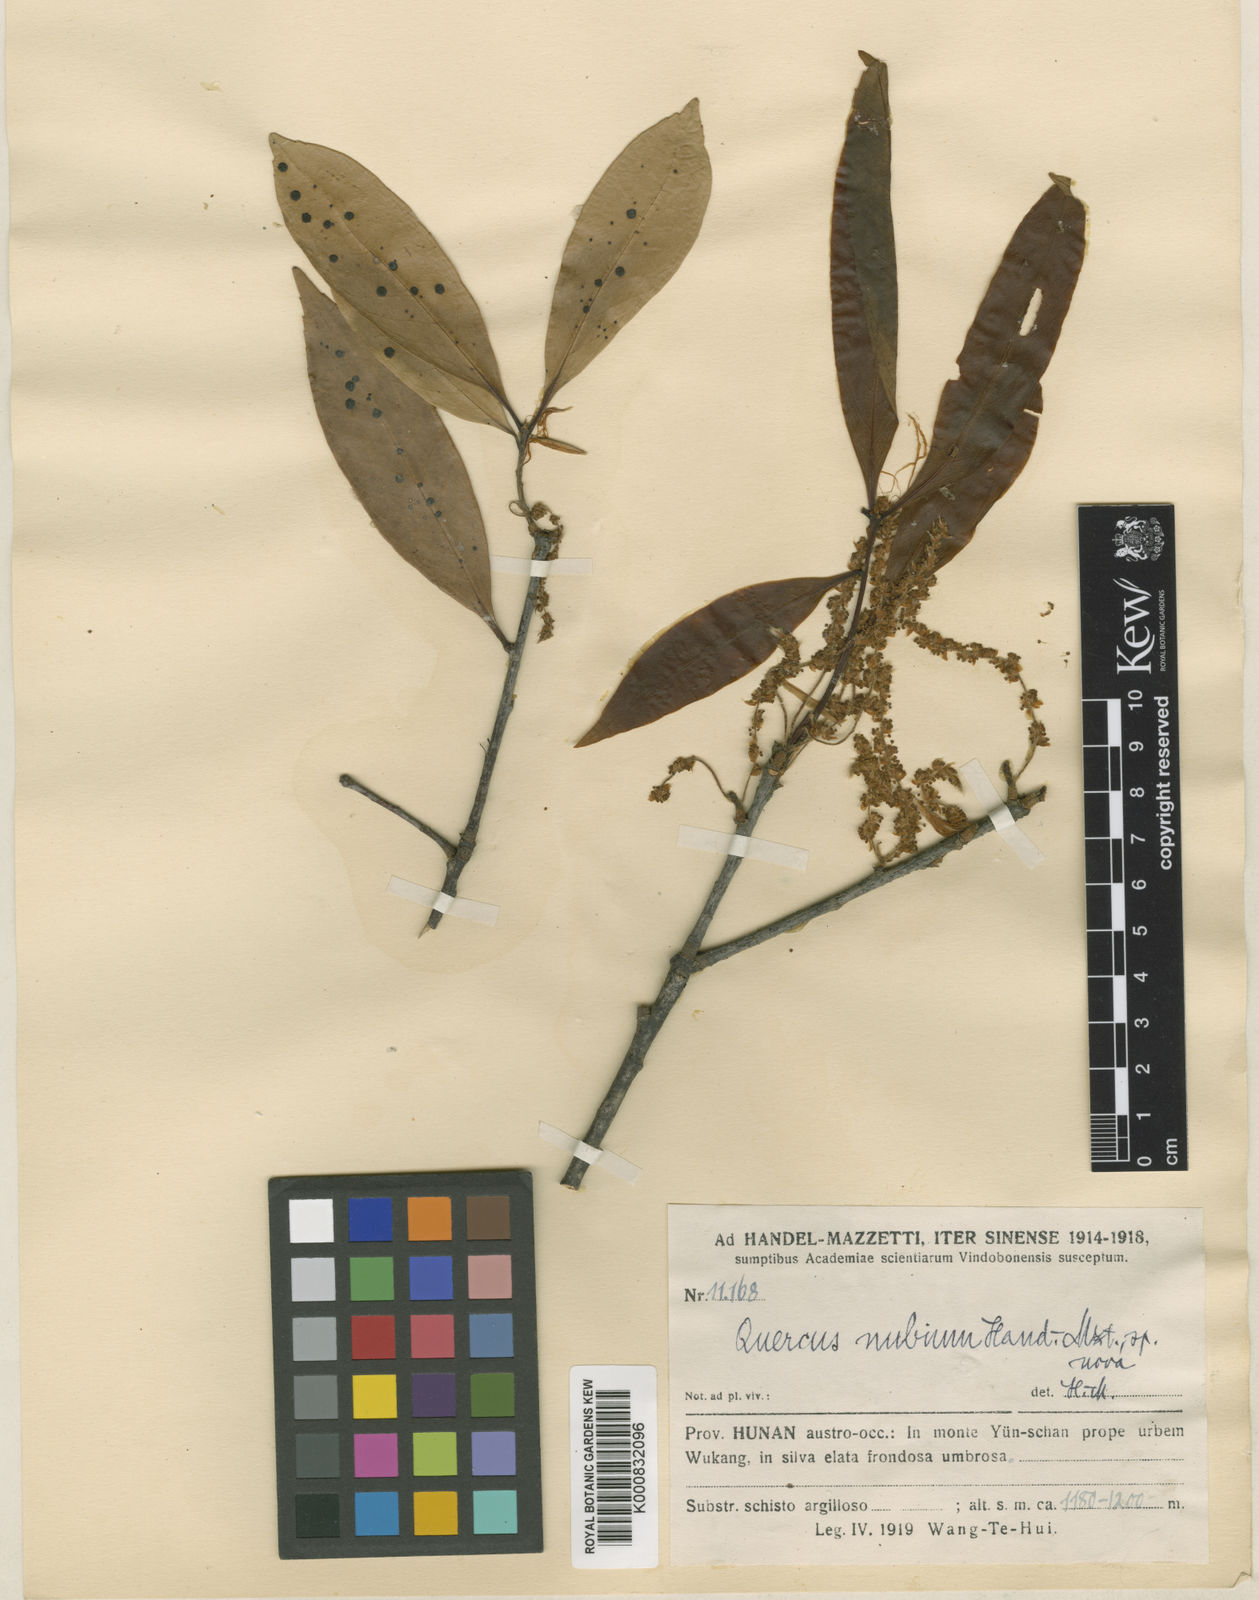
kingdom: Plantae
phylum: Tracheophyta
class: Magnoliopsida
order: Fagales
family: Fagaceae
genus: Quercus
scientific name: Quercus sessilifolia
